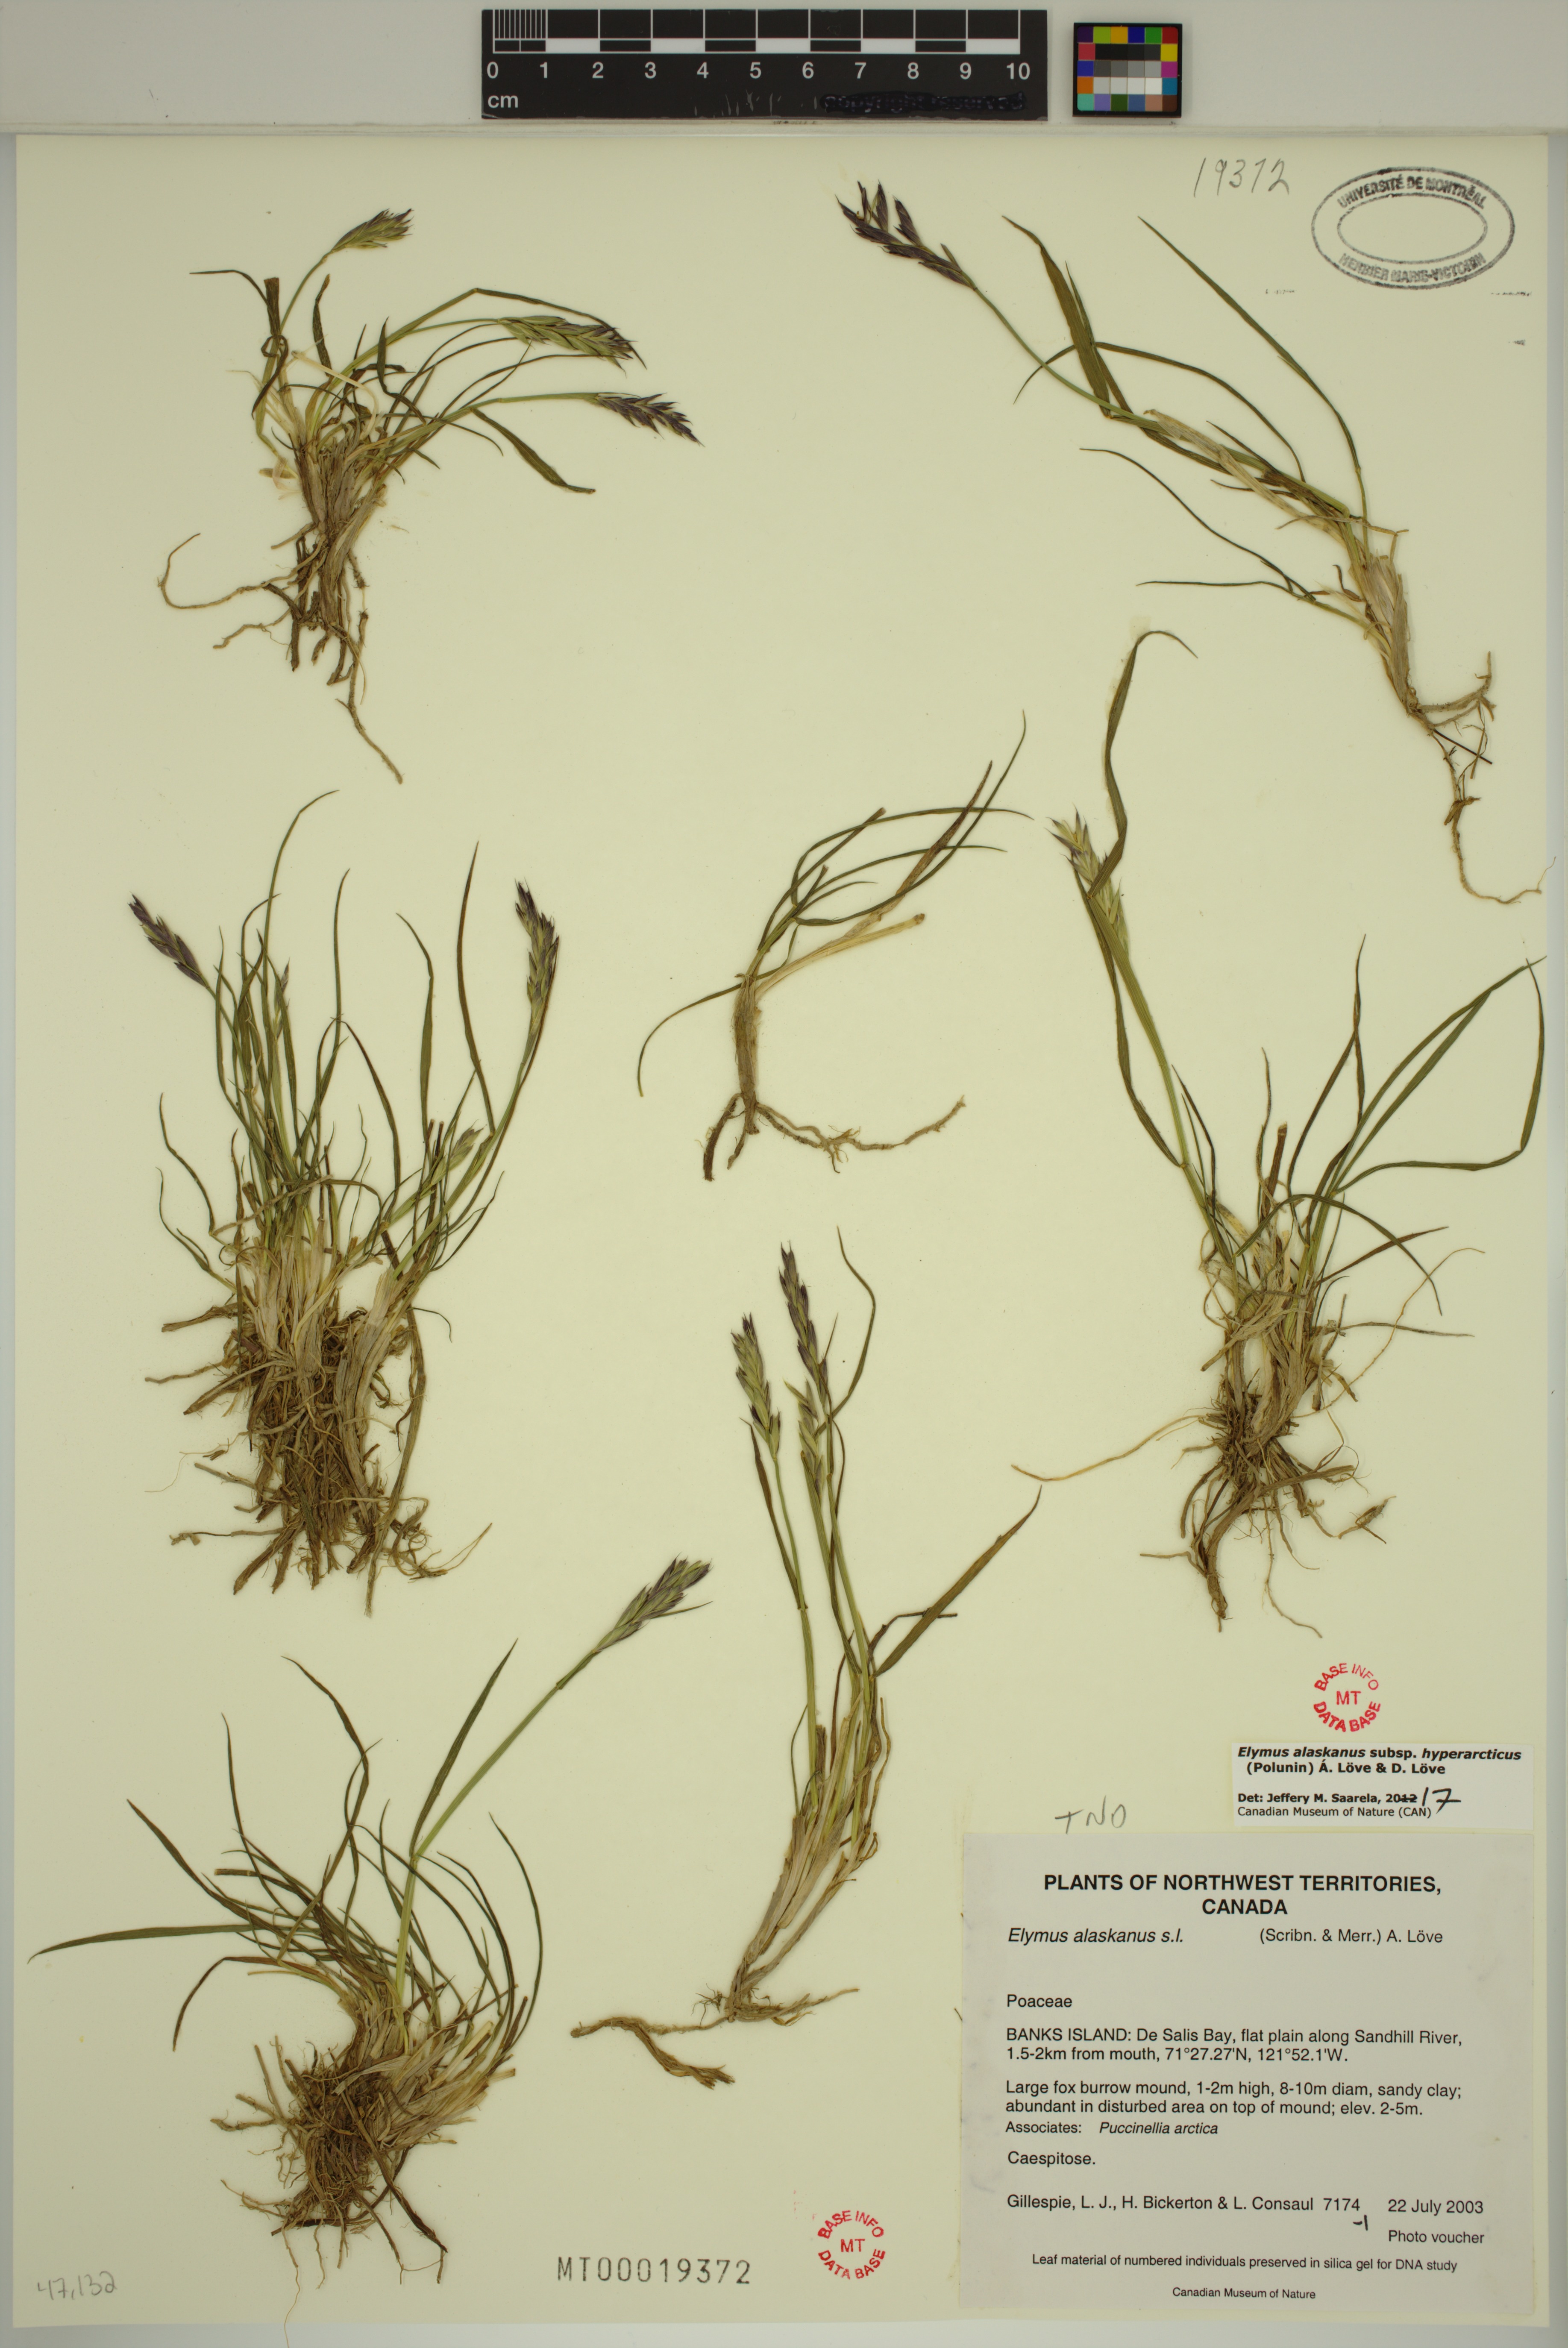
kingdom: Plantae
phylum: Tracheophyta
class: Liliopsida
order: Poales
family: Poaceae
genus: Elymus
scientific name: Elymus sajanensis
